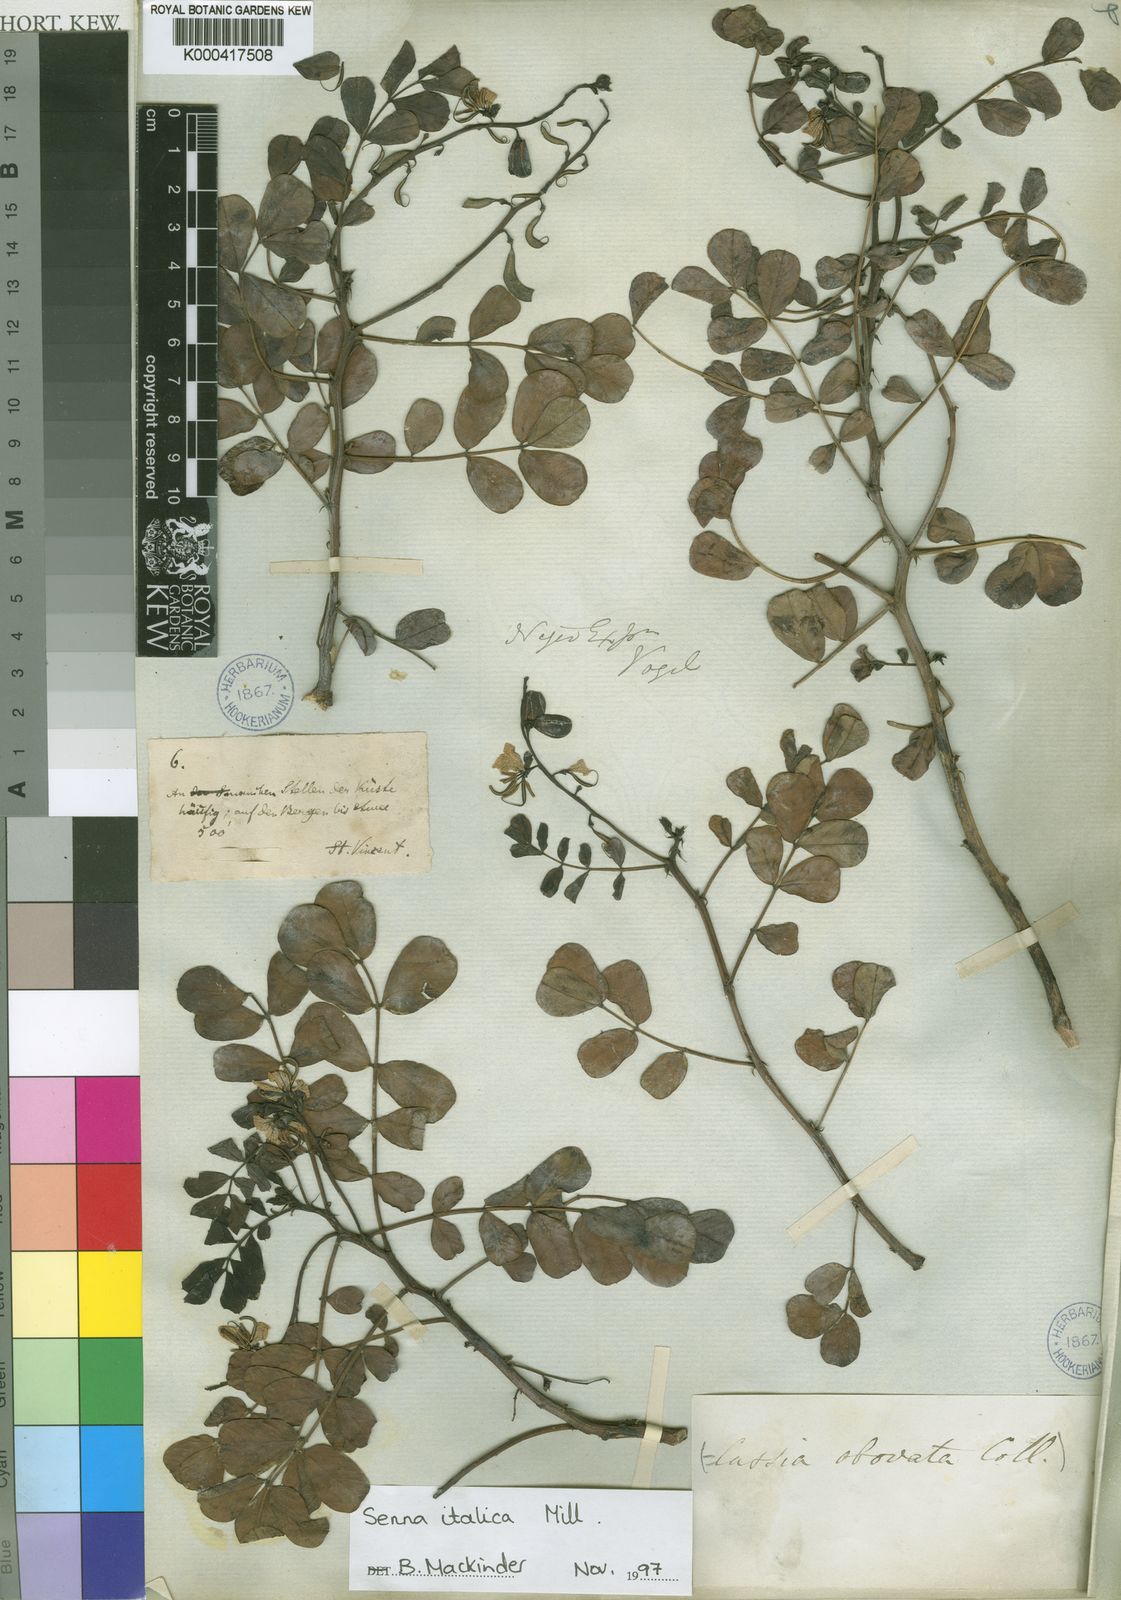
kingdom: Plantae
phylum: Tracheophyta
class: Magnoliopsida
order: Fabales
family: Fabaceae
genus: Senna
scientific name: Senna italica
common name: Port royal senna
